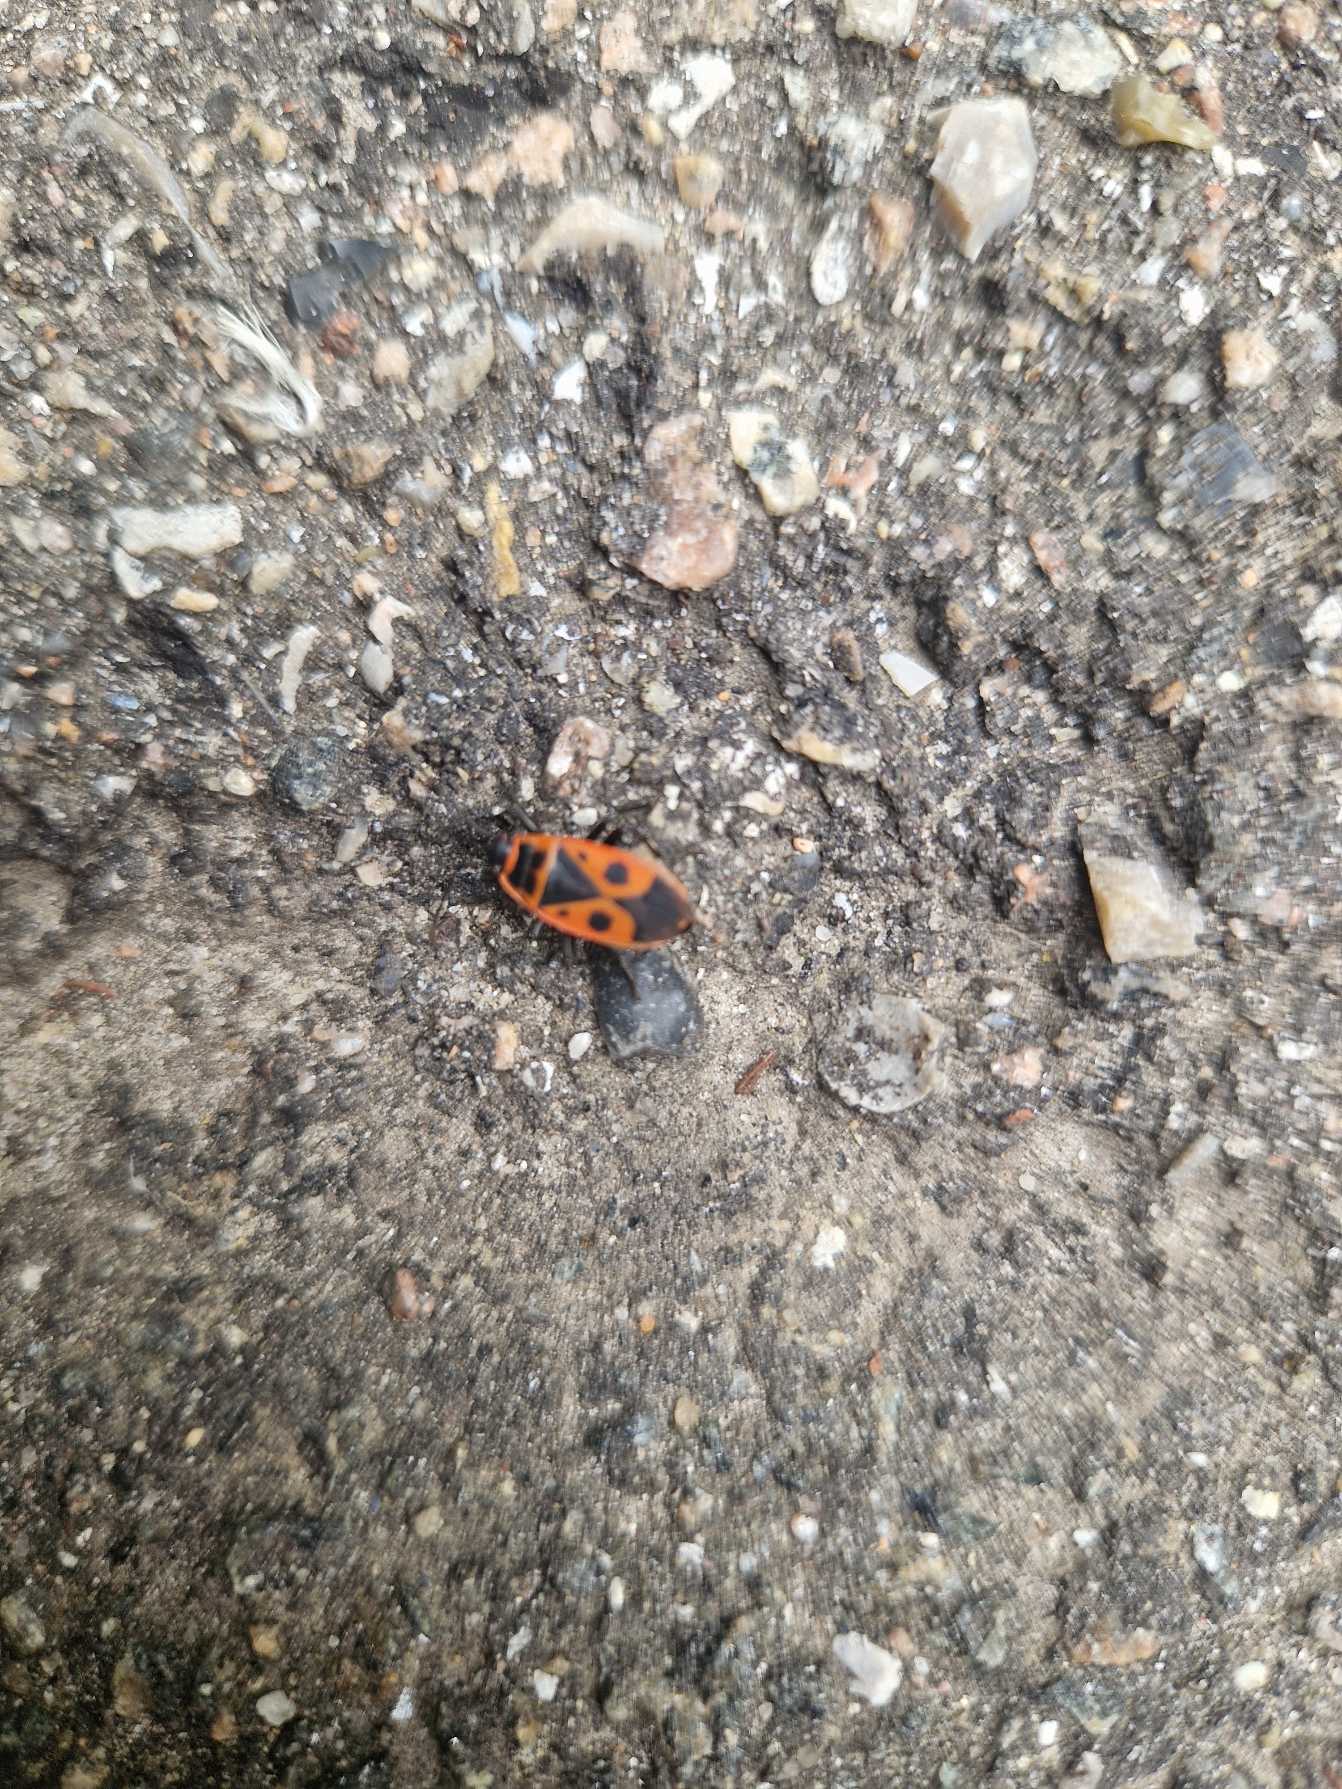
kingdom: Animalia
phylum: Arthropoda
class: Insecta
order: Hemiptera
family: Pyrrhocoridae
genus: Pyrrhocoris
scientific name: Pyrrhocoris apterus
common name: Ildtæge
